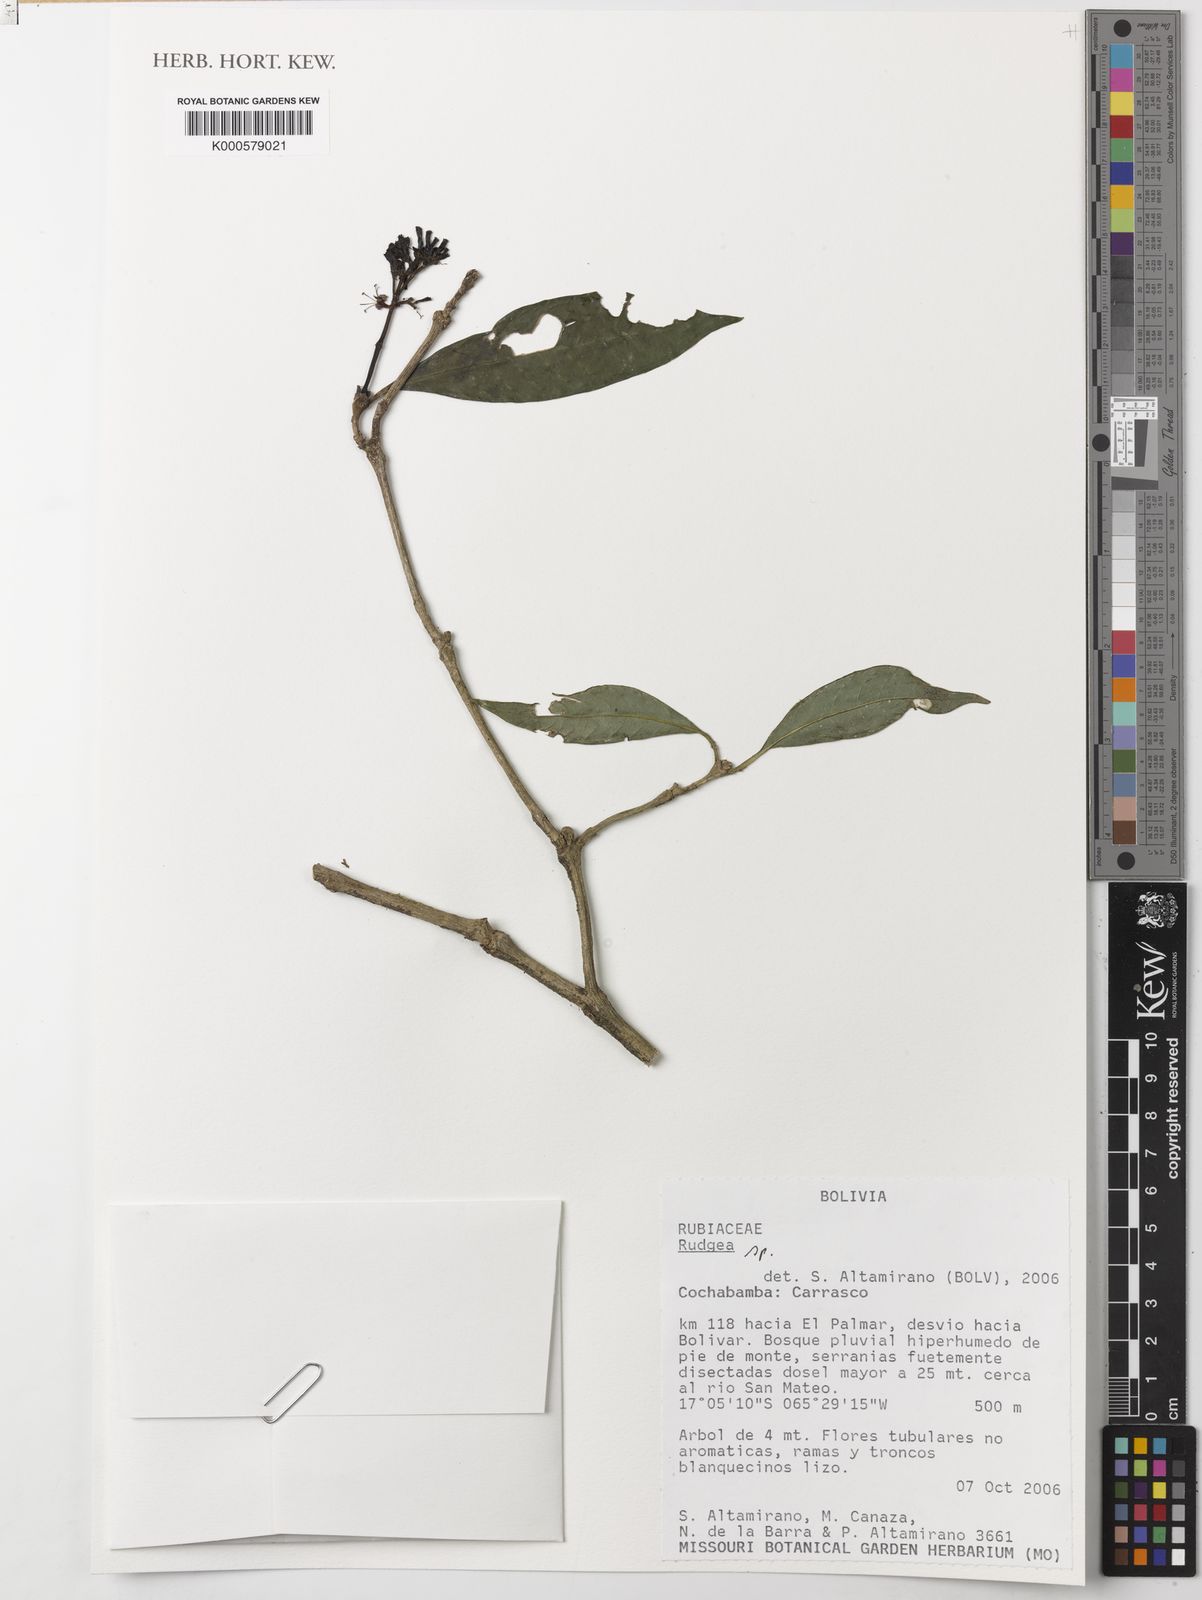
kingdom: Plantae
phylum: Tracheophyta
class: Magnoliopsida
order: Gentianales
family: Rubiaceae
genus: Rudgea
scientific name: Rudgea
